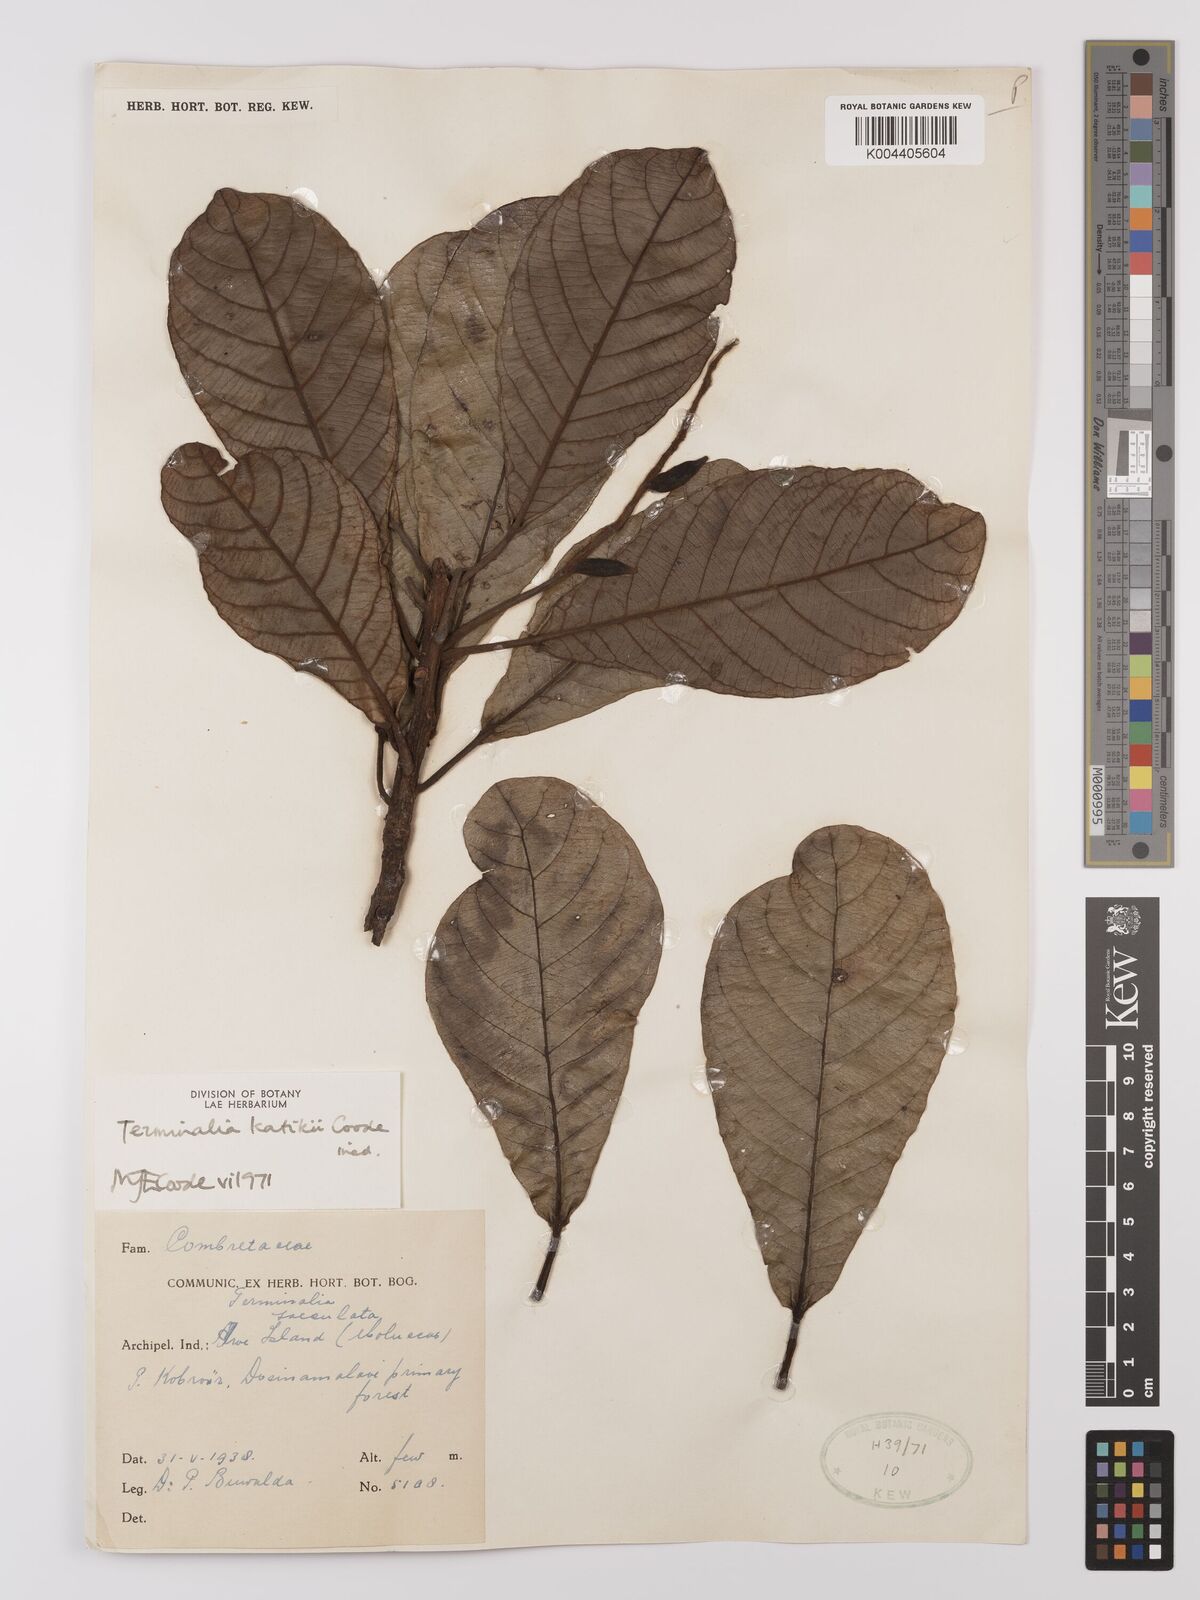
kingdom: Plantae
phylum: Tracheophyta
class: Magnoliopsida
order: Myrtales
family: Combretaceae
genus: Terminalia
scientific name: Terminalia katikii
